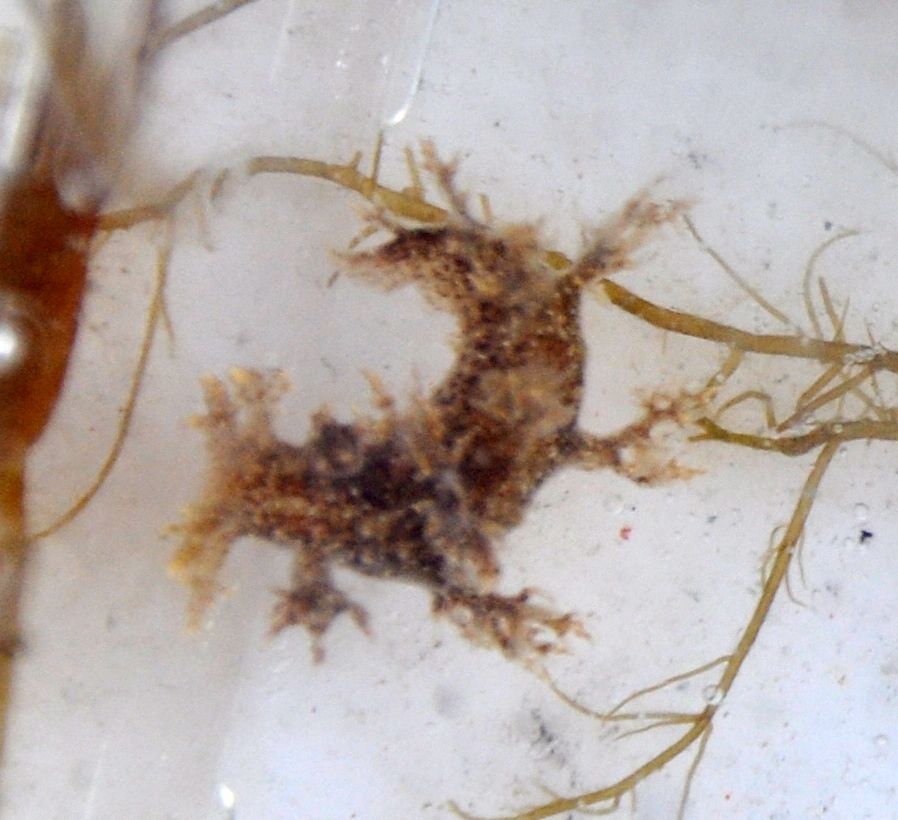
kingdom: Animalia
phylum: Mollusca
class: Gastropoda
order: Nudibranchia
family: Dendronotidae
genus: Dendronotus
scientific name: Dendronotus frondosus
